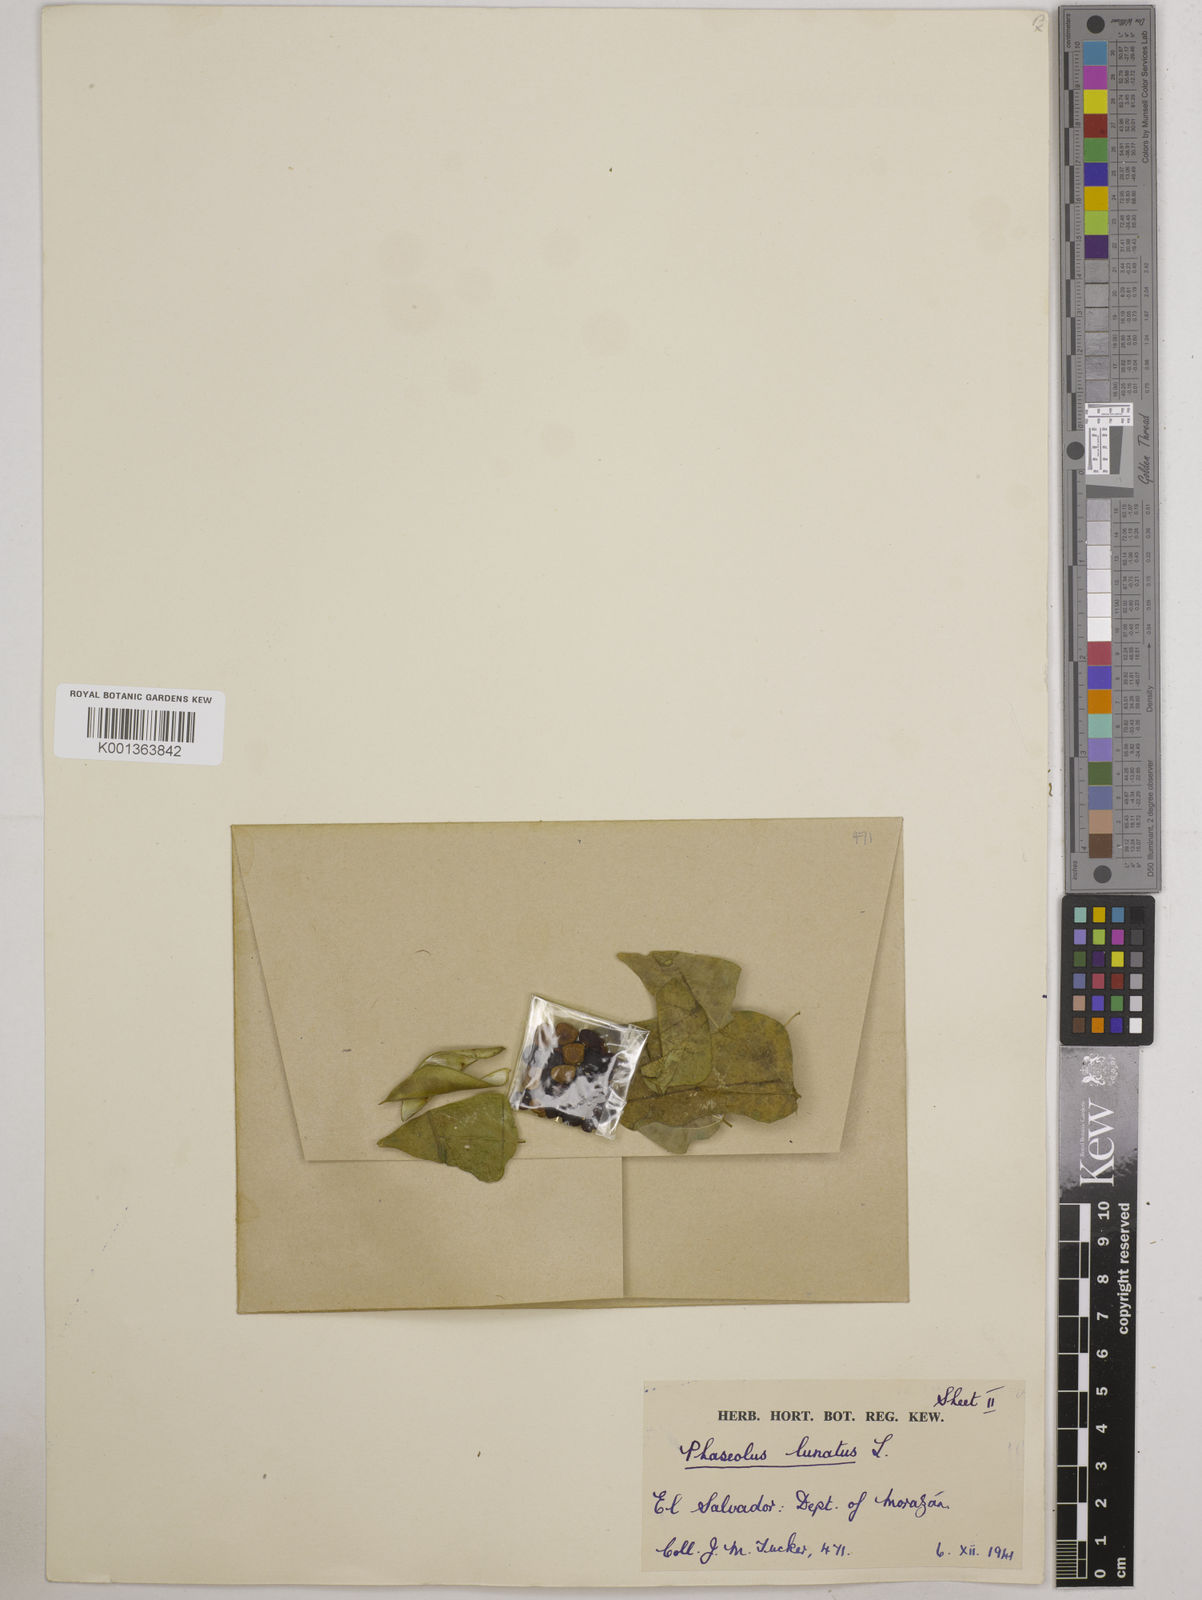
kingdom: Plantae
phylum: Tracheophyta
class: Magnoliopsida
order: Fabales
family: Fabaceae
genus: Phaseolus
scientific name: Phaseolus lunatus
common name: Sieva bean
